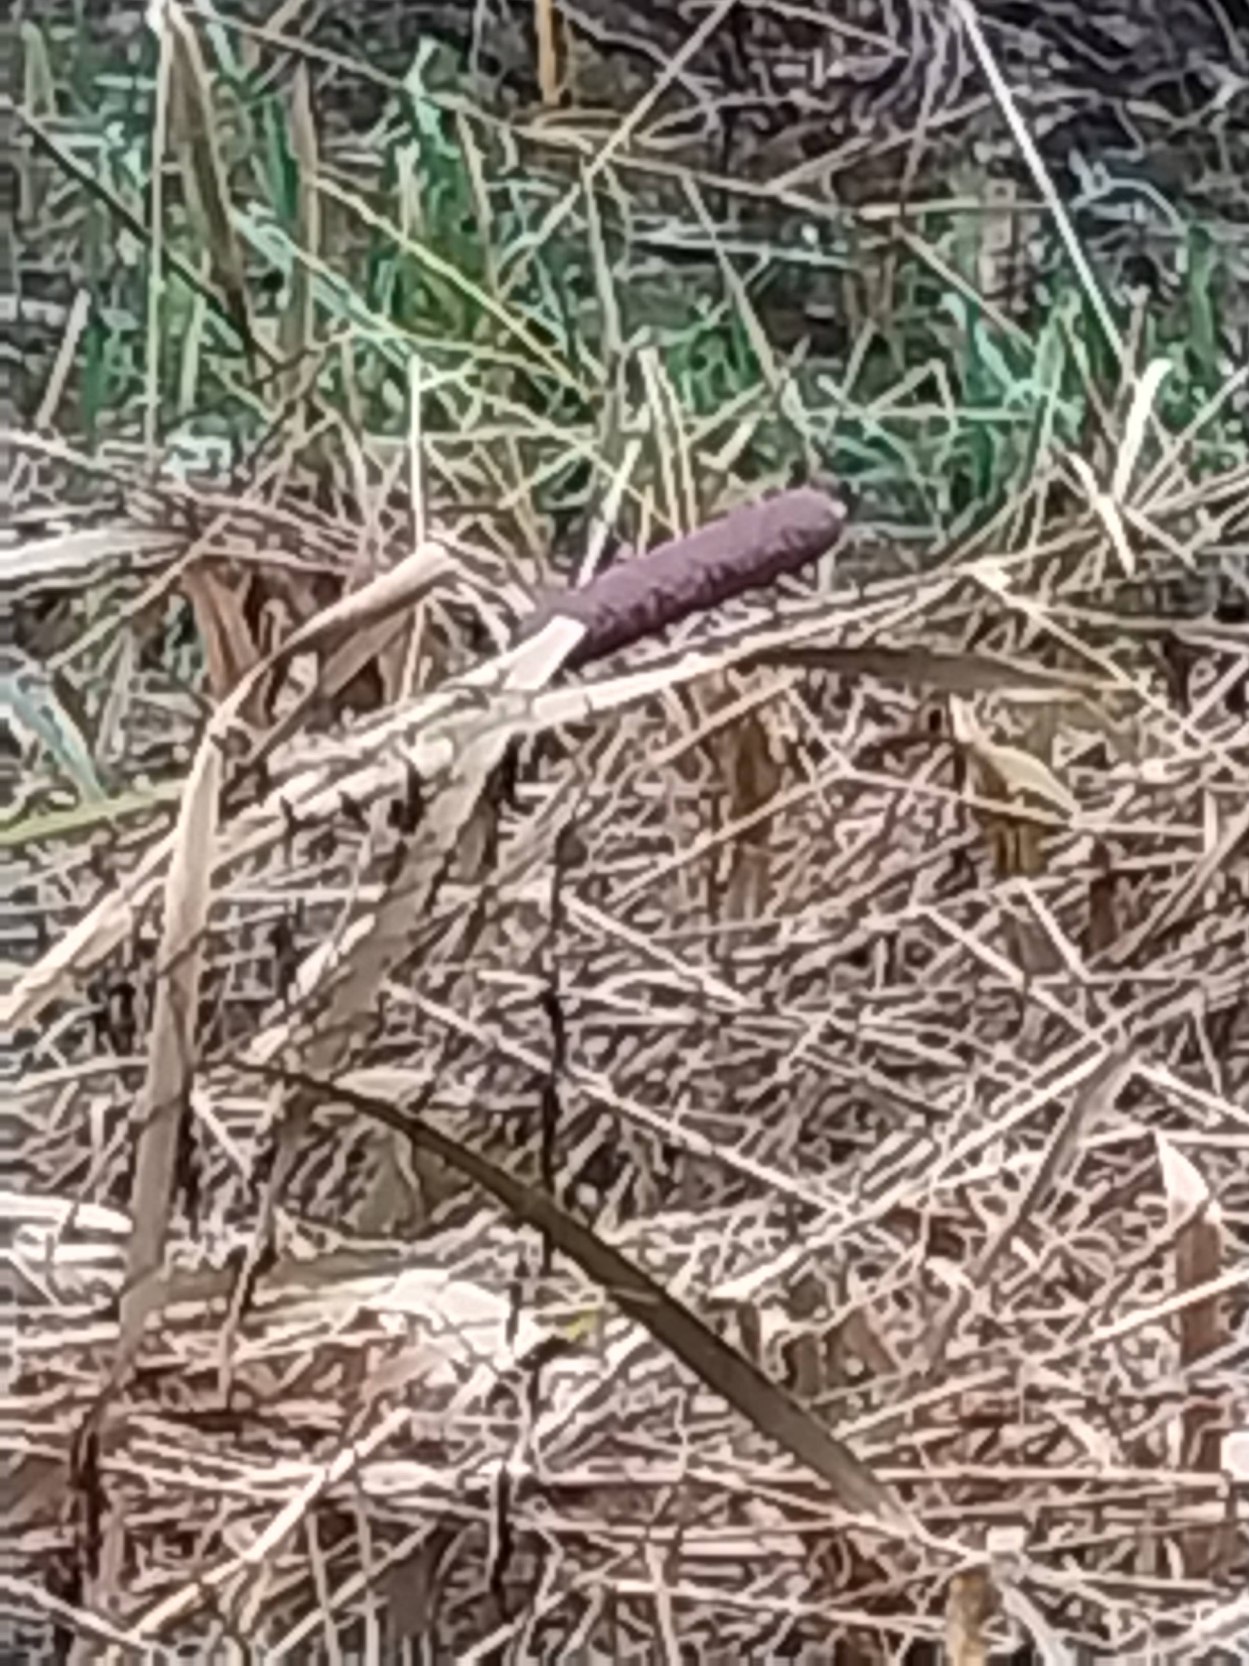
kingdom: Plantae
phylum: Tracheophyta
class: Liliopsida
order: Poales
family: Typhaceae
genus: Typha
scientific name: Typha latifolia
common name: Bredbladet dunhammer
